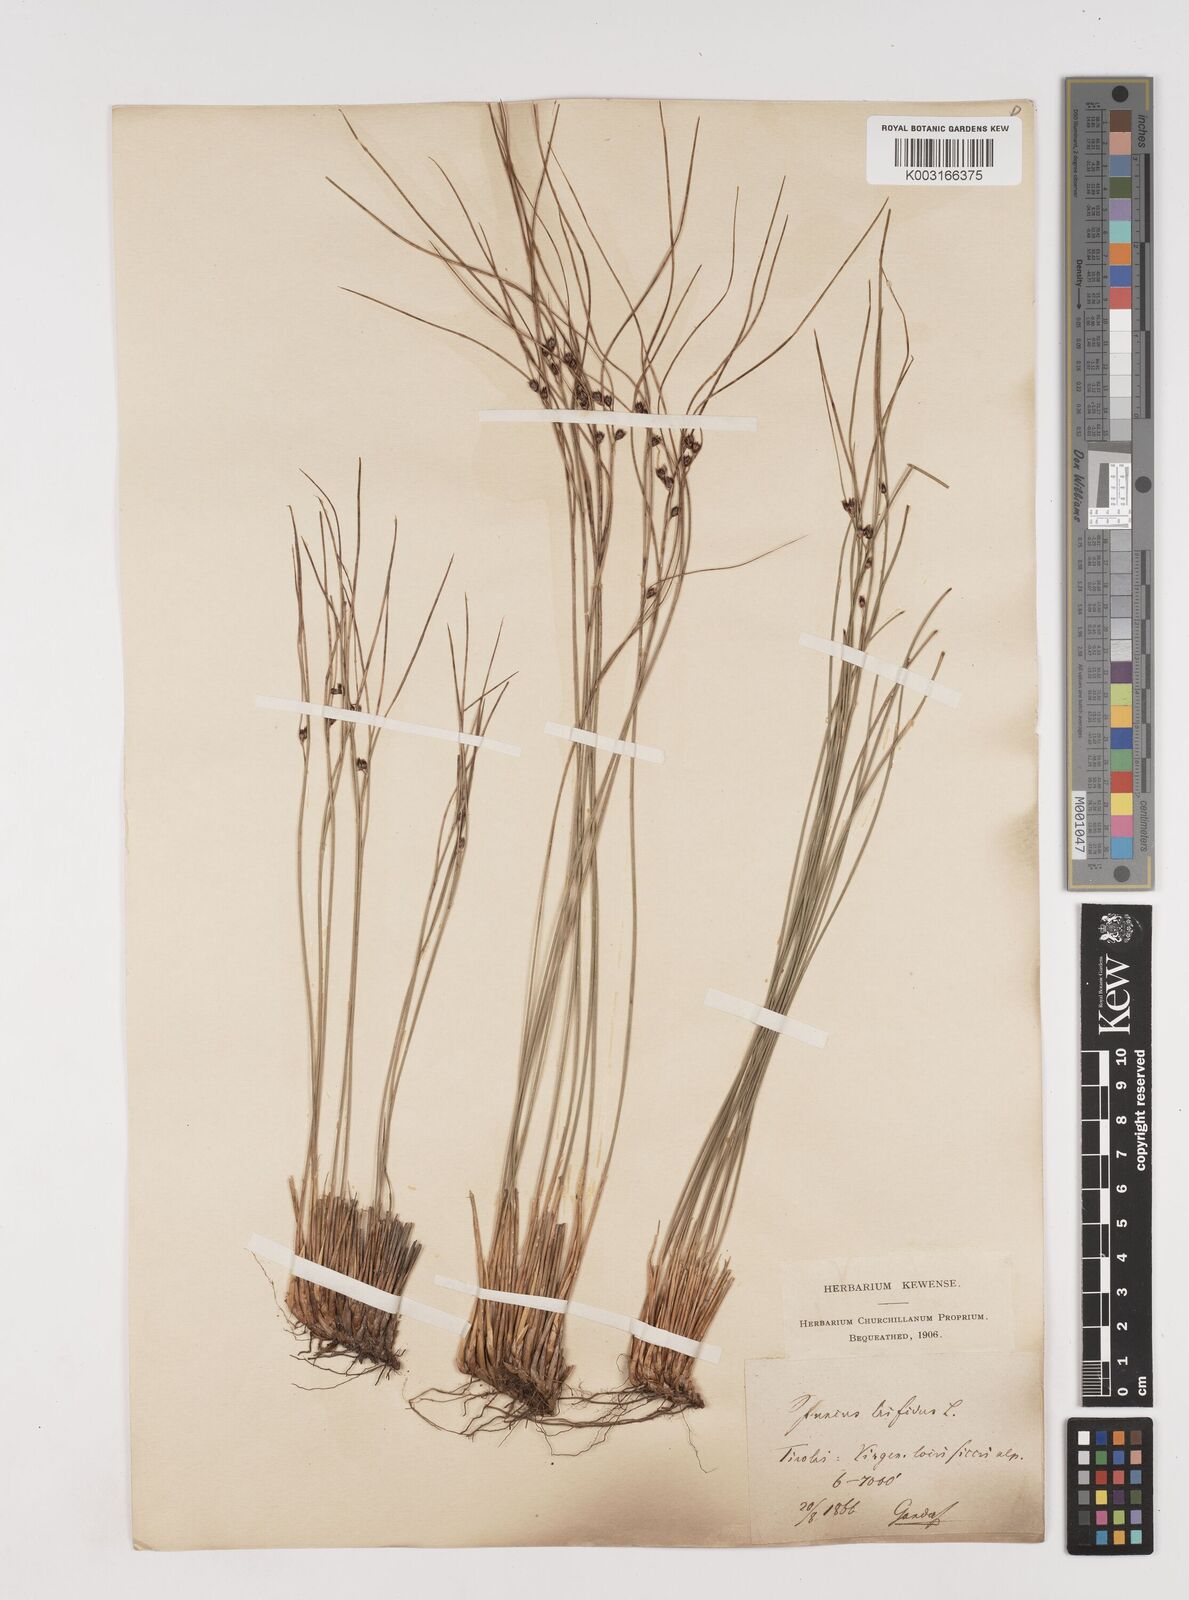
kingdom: Plantae
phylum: Tracheophyta
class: Liliopsida
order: Poales
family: Juncaceae
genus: Oreojuncus
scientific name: Oreojuncus trifidus
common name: Highland rush
